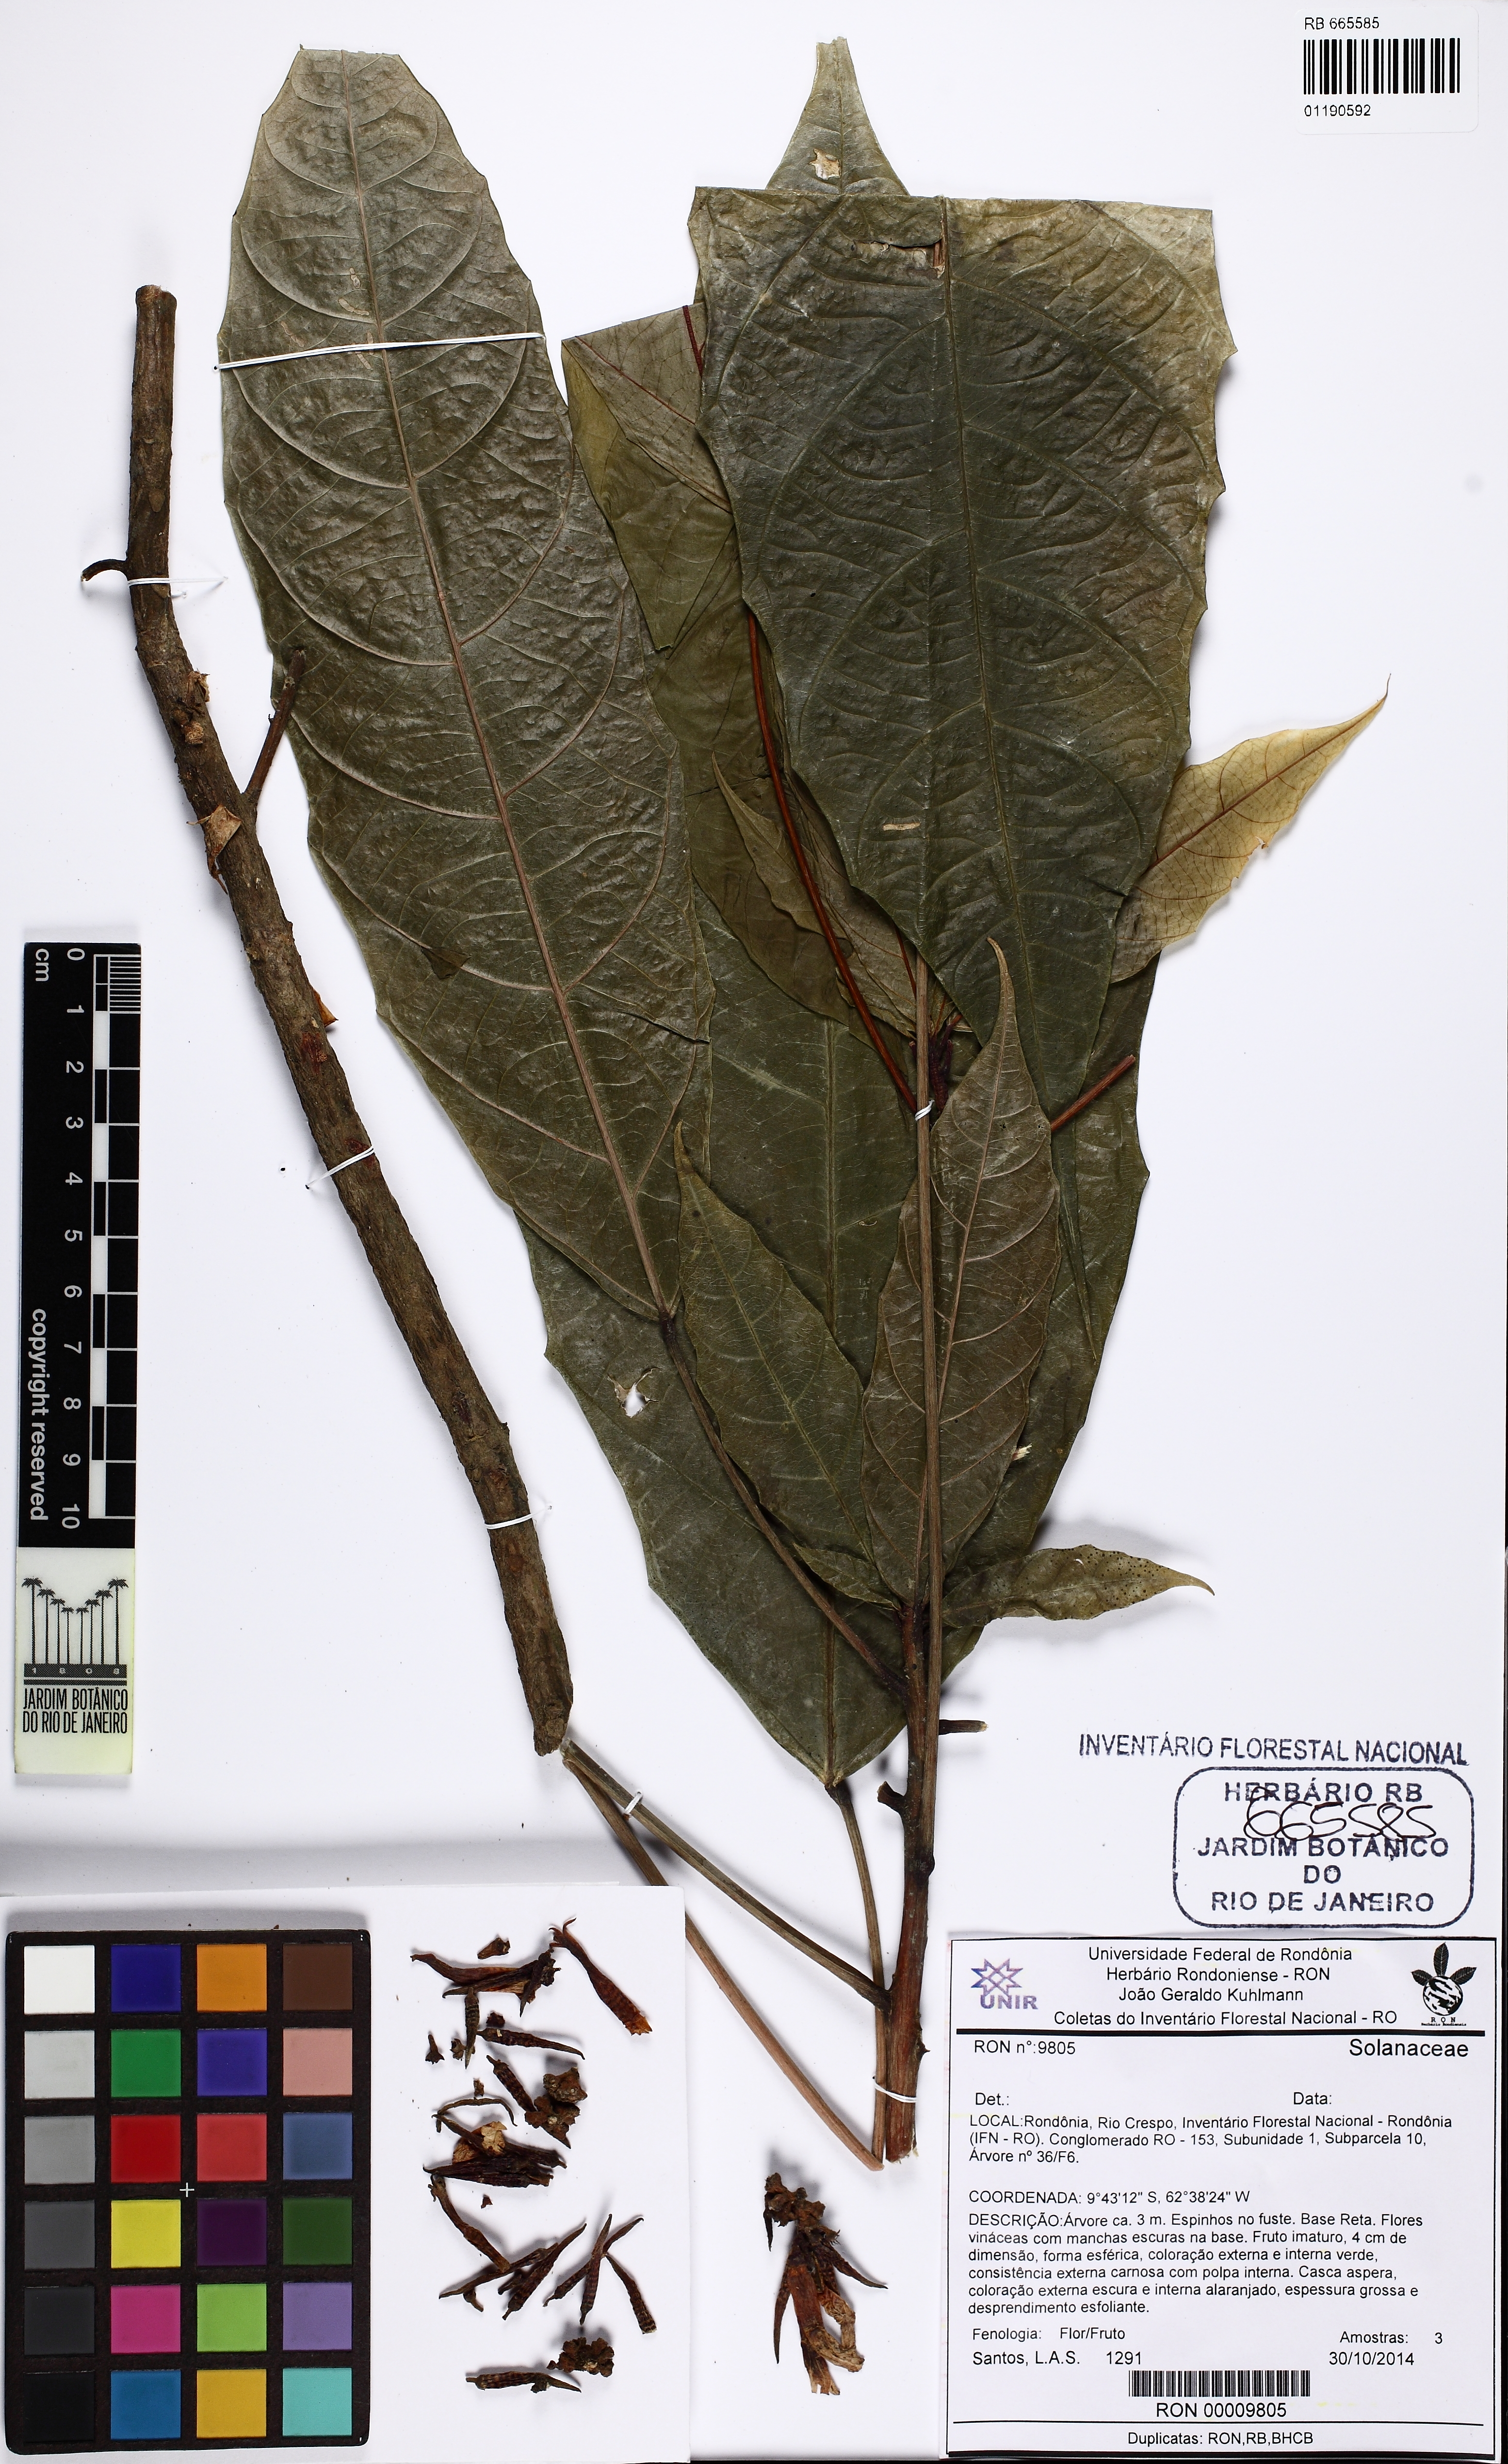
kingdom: Plantae
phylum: Tracheophyta
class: Magnoliopsida
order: Apiales
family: Araliaceae
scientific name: Araliaceae
